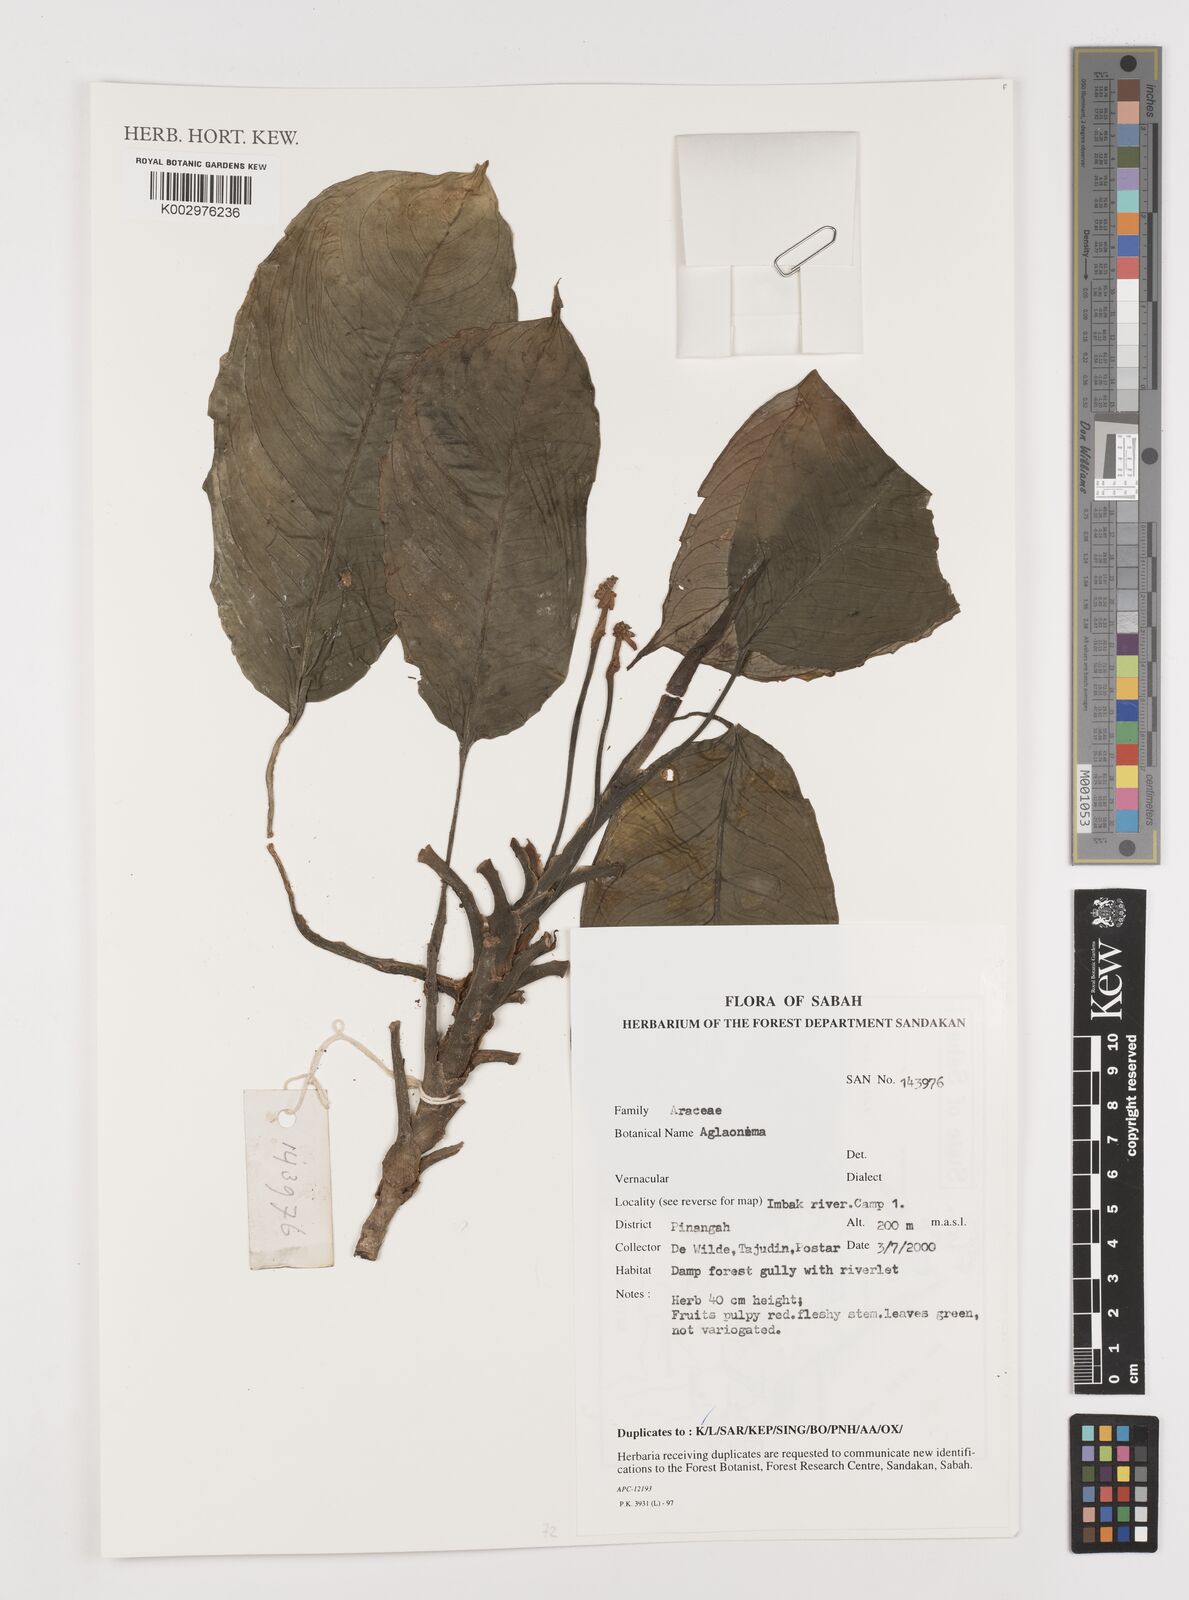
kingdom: Plantae
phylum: Tracheophyta
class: Liliopsida
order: Alismatales
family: Araceae
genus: Aglaonema
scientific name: Aglaonema
